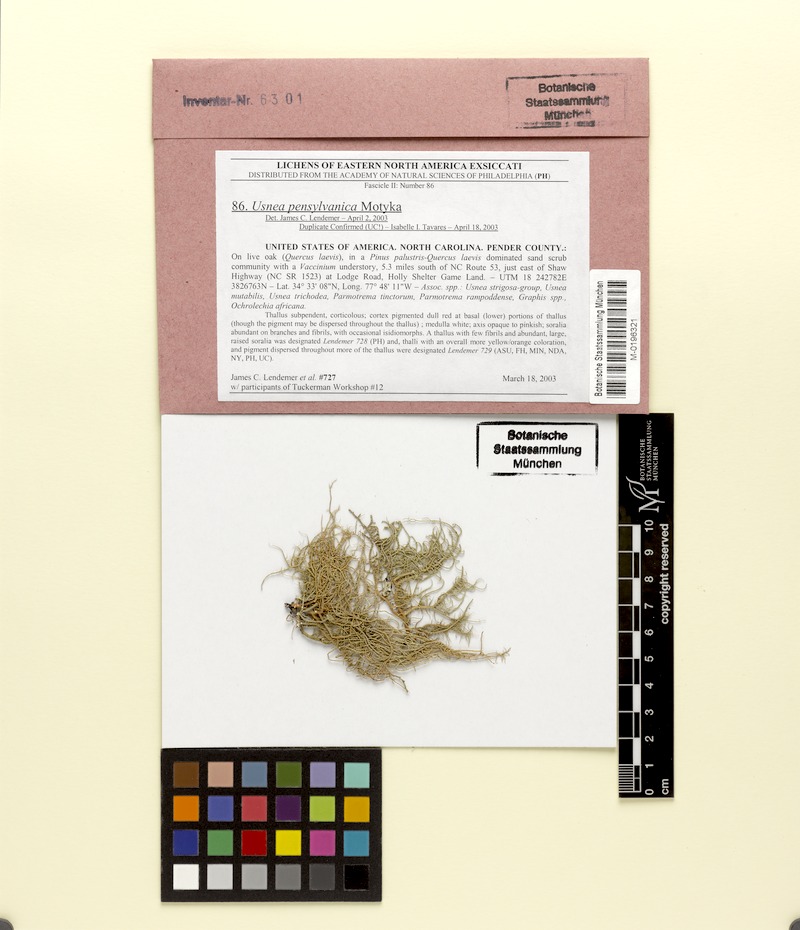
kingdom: Fungi
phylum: Ascomycota
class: Lecanoromycetes
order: Lecanorales
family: Parmeliaceae
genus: Usnea
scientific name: Usnea pensylvanica
